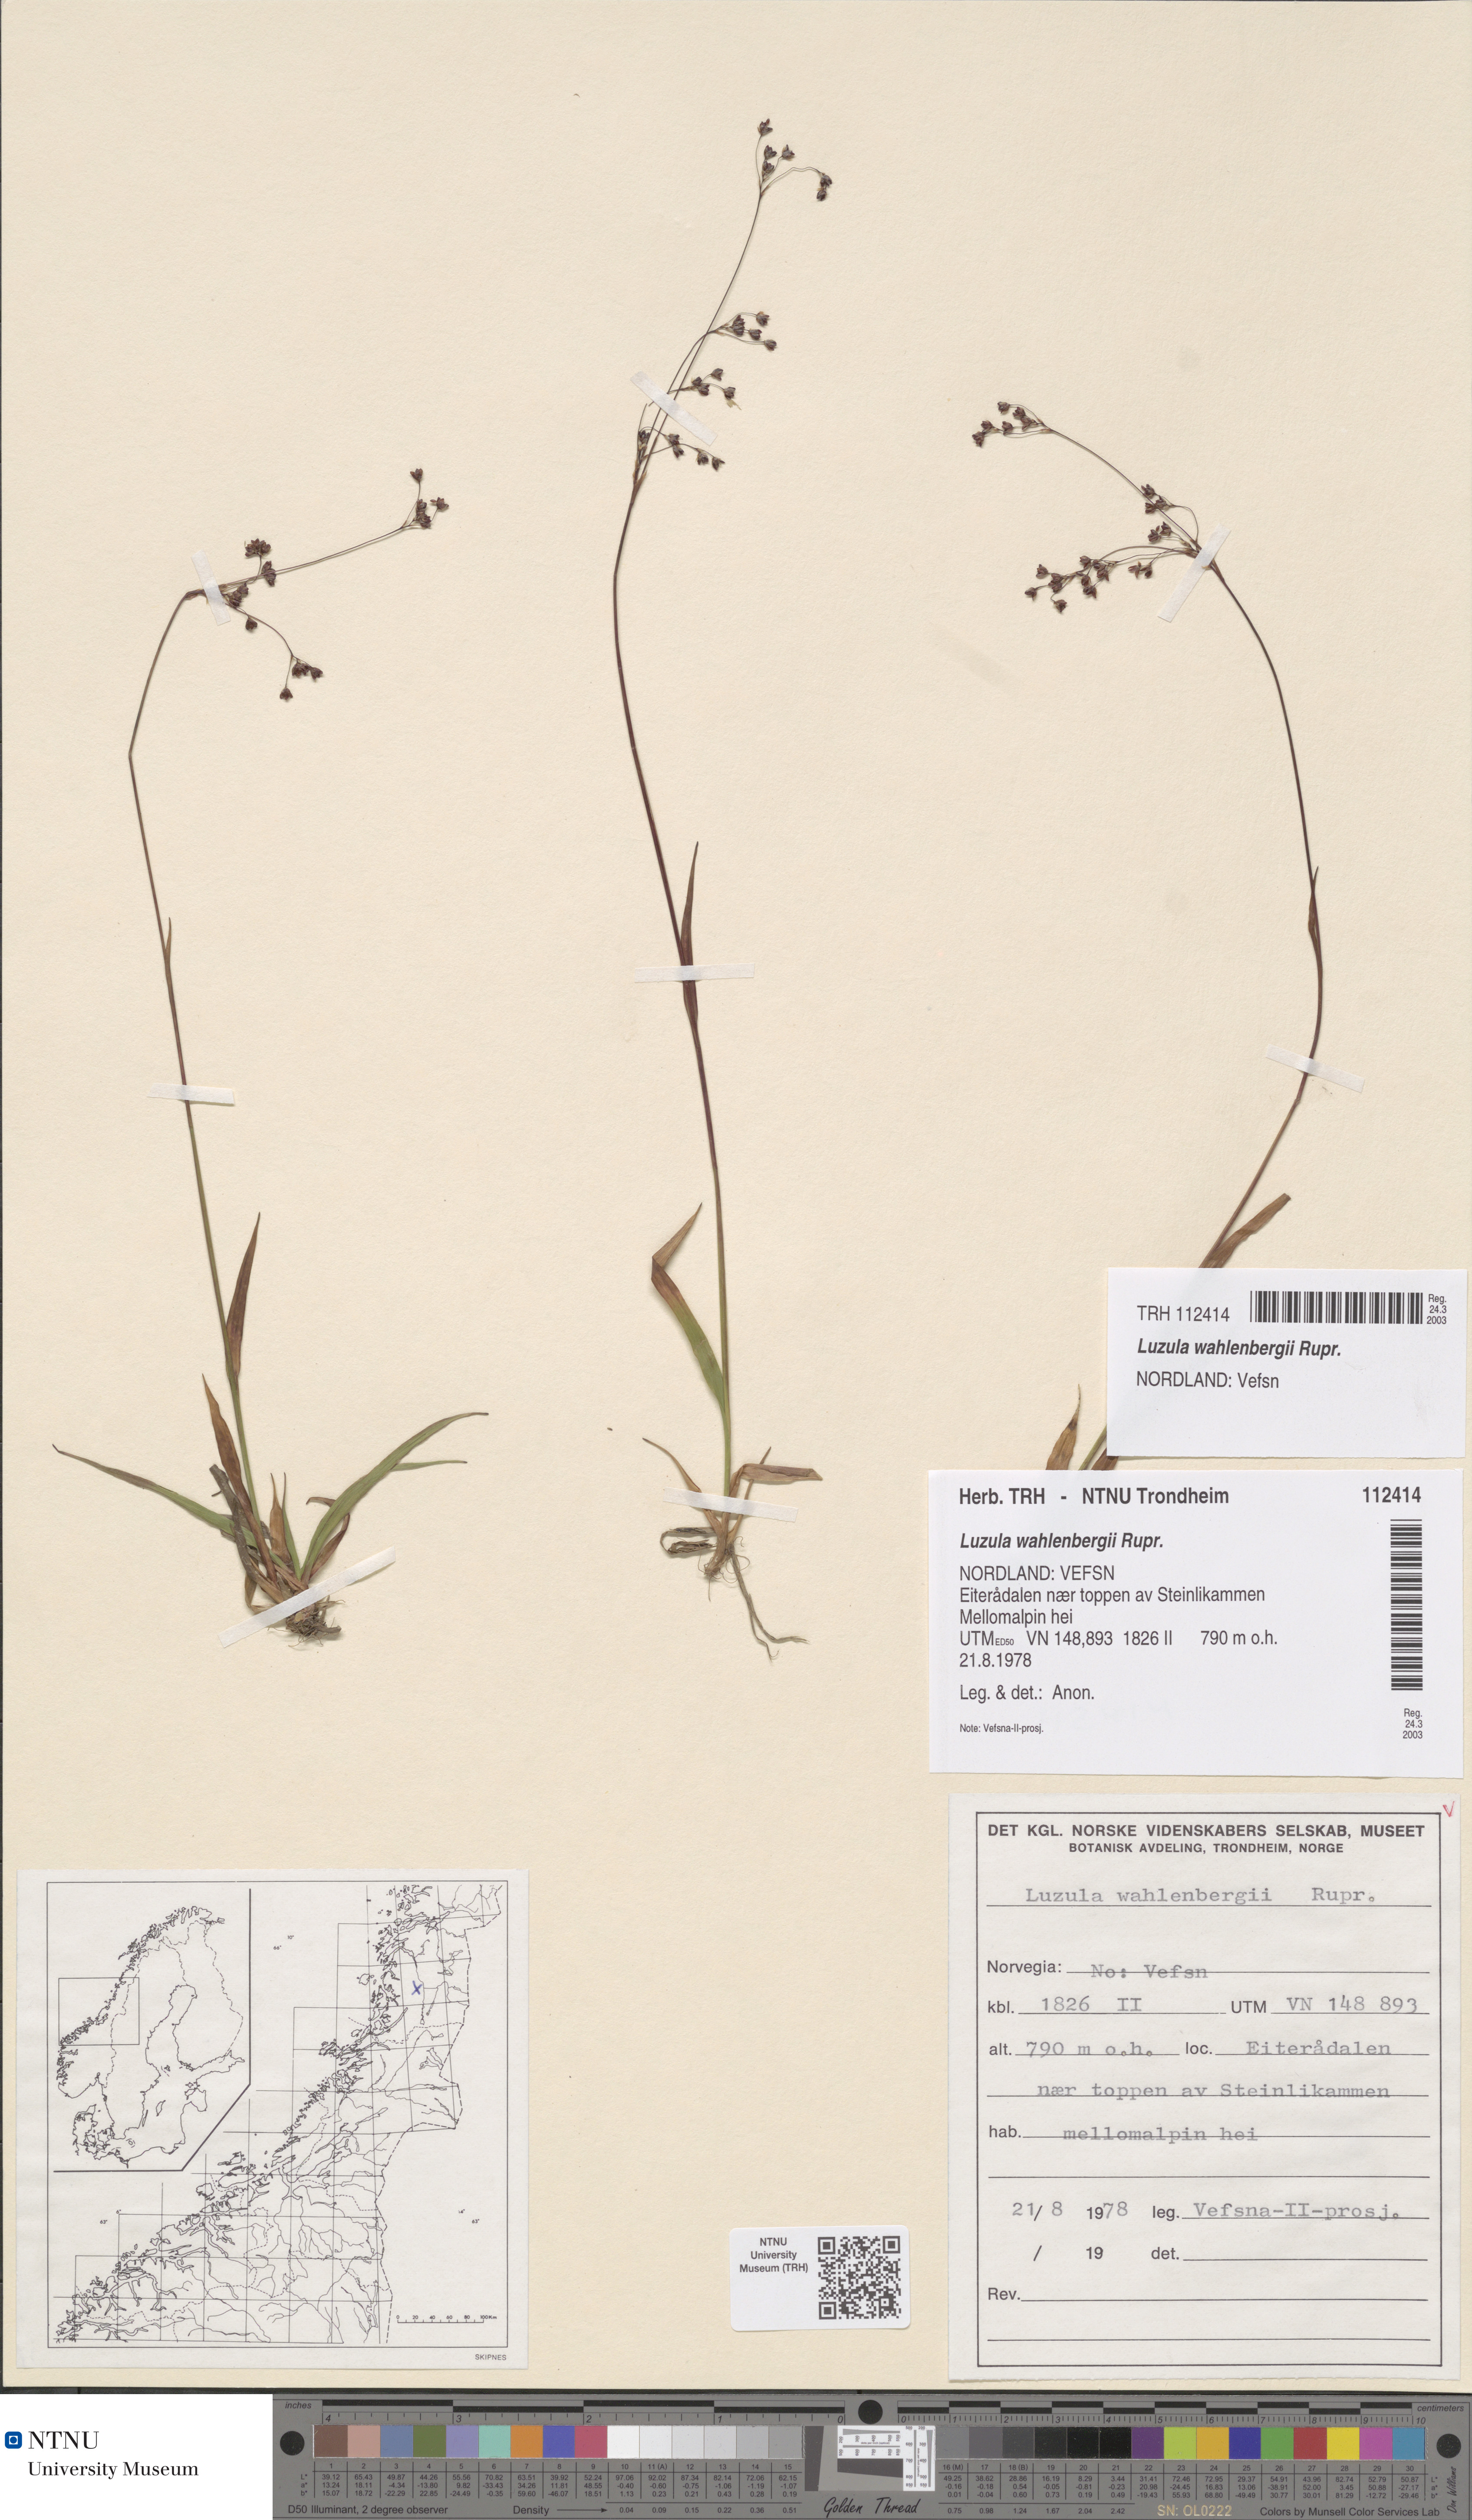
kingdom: Plantae
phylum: Tracheophyta
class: Liliopsida
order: Poales
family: Juncaceae
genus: Luzula
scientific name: Luzula wahlenbergii
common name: Wahlenberg's wood-rush
